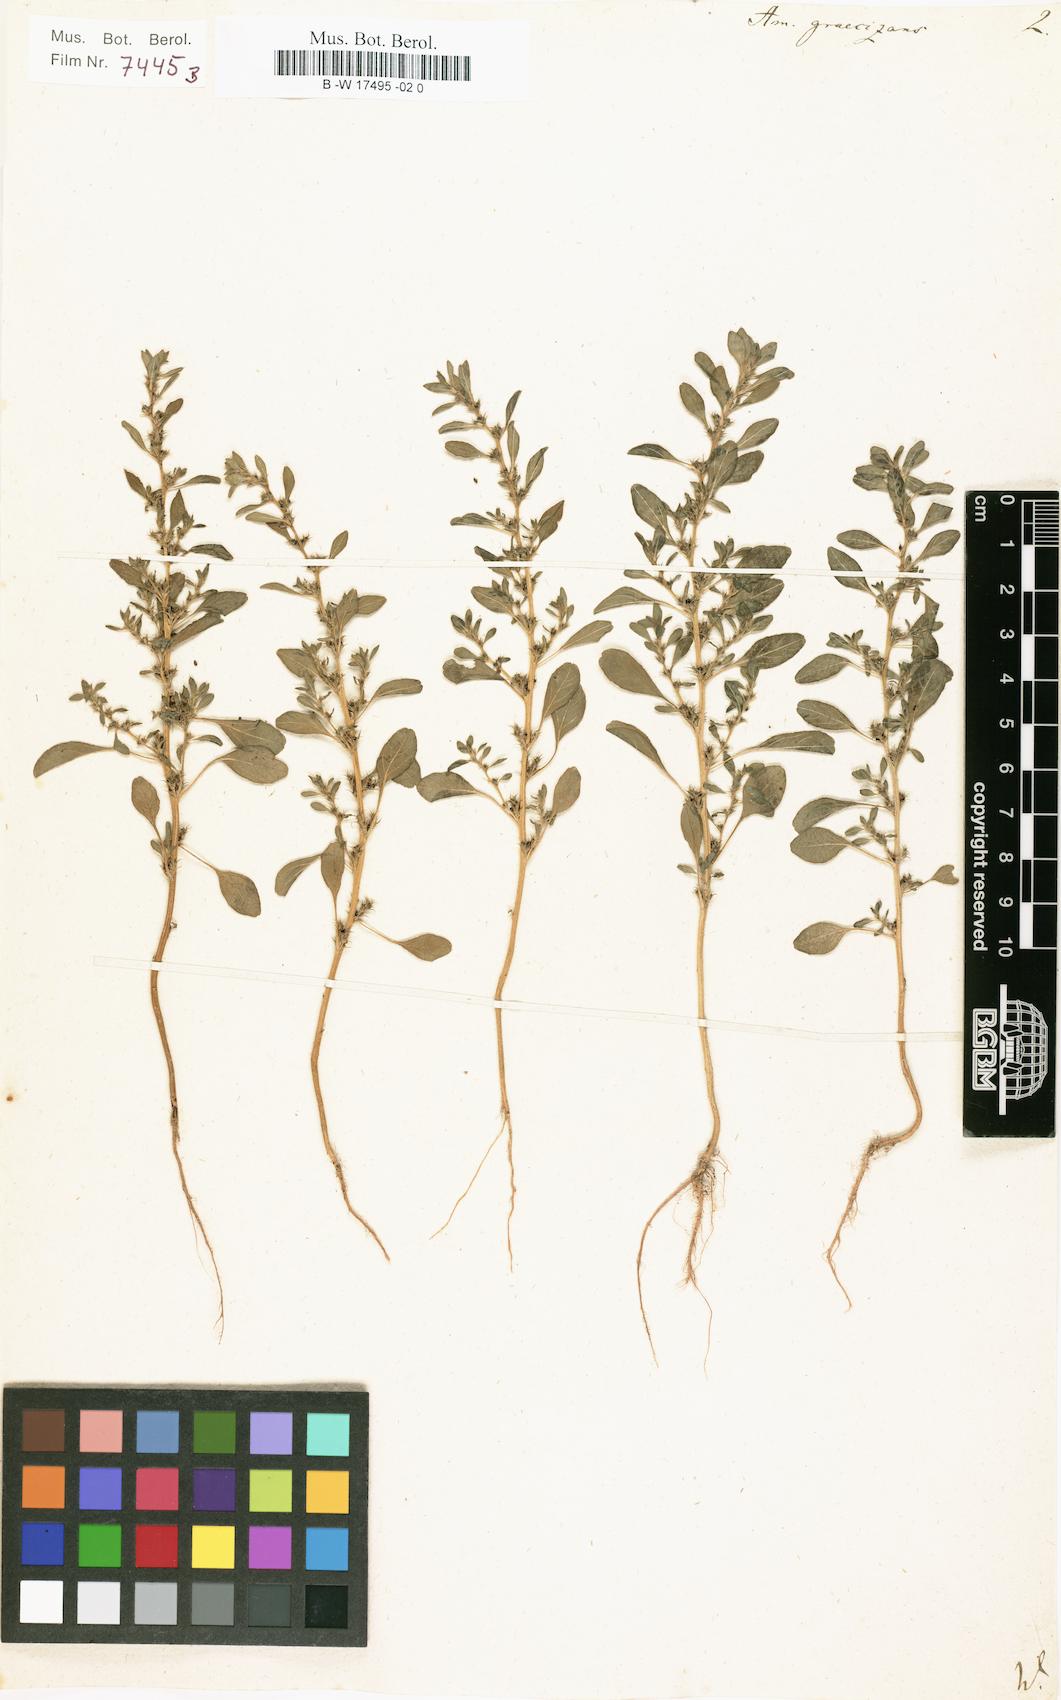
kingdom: Plantae
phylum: Tracheophyta
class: Magnoliopsida
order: Caryophyllales
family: Amaranthaceae
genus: Amaranthus
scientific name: Amaranthus albus
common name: White pigweed
